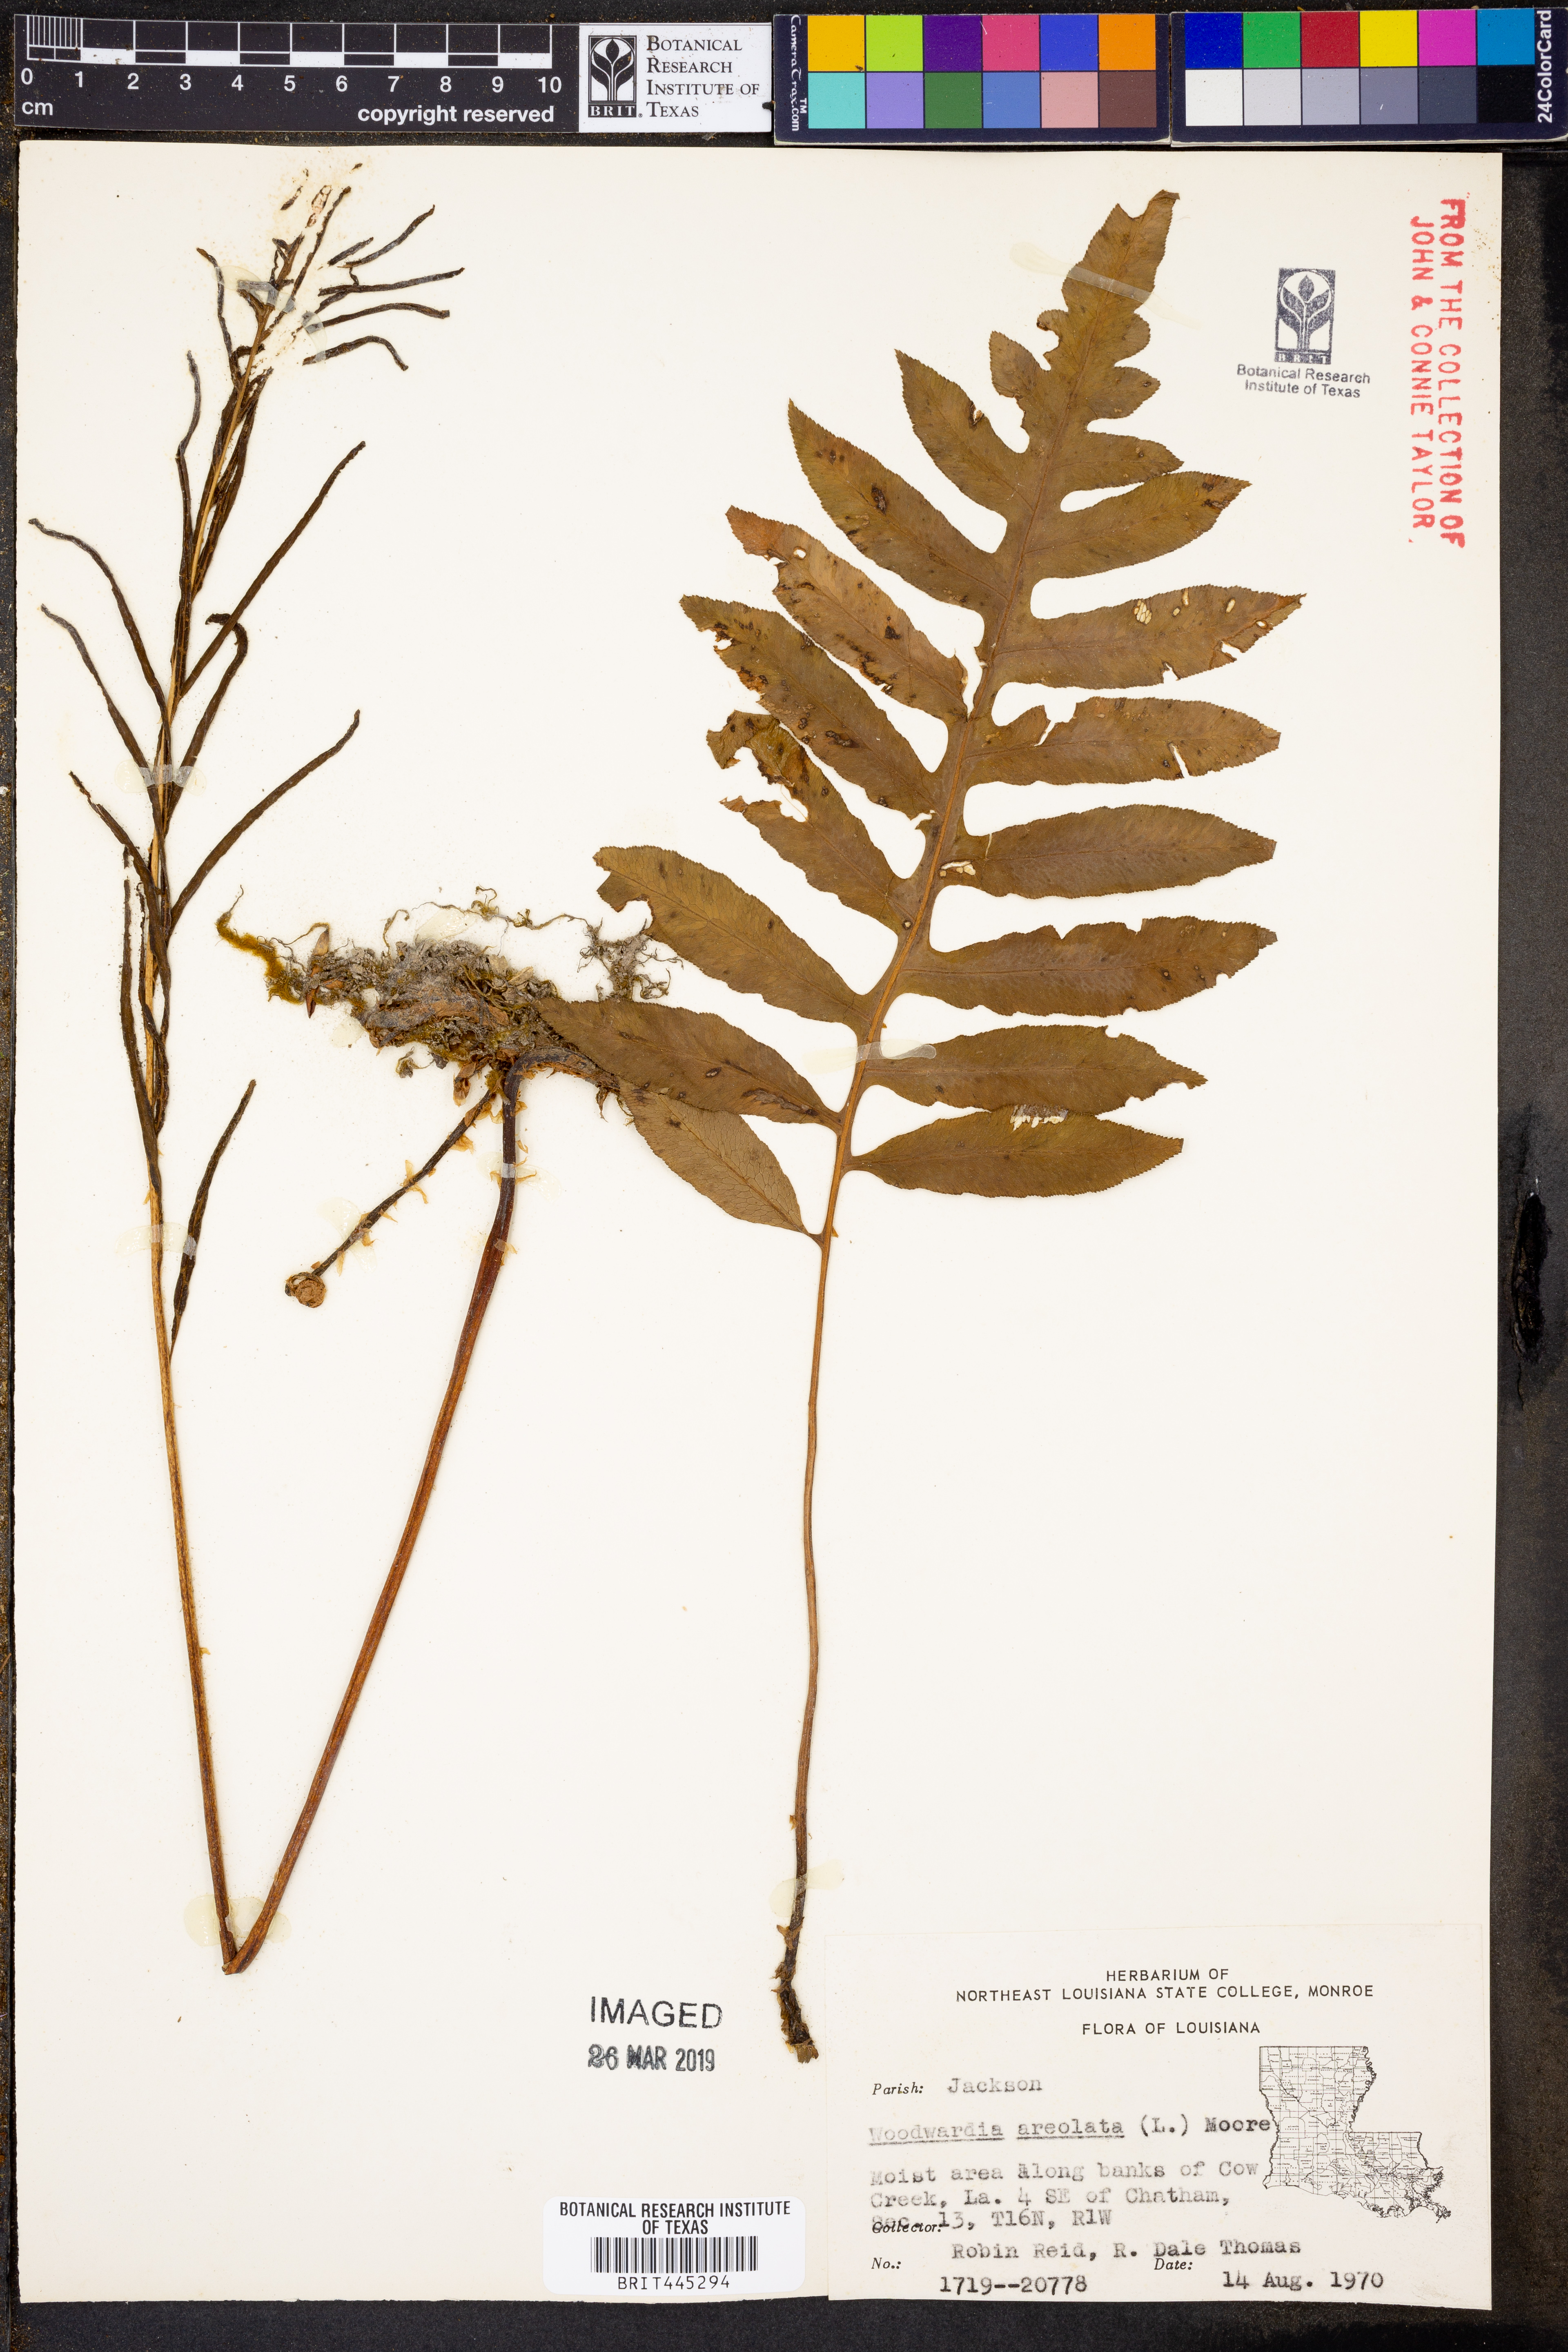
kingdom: Plantae
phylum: Tracheophyta
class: Polypodiopsida
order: Polypodiales
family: Blechnaceae
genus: Lorinseria
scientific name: Lorinseria areolata
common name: Dwarf chain fern
